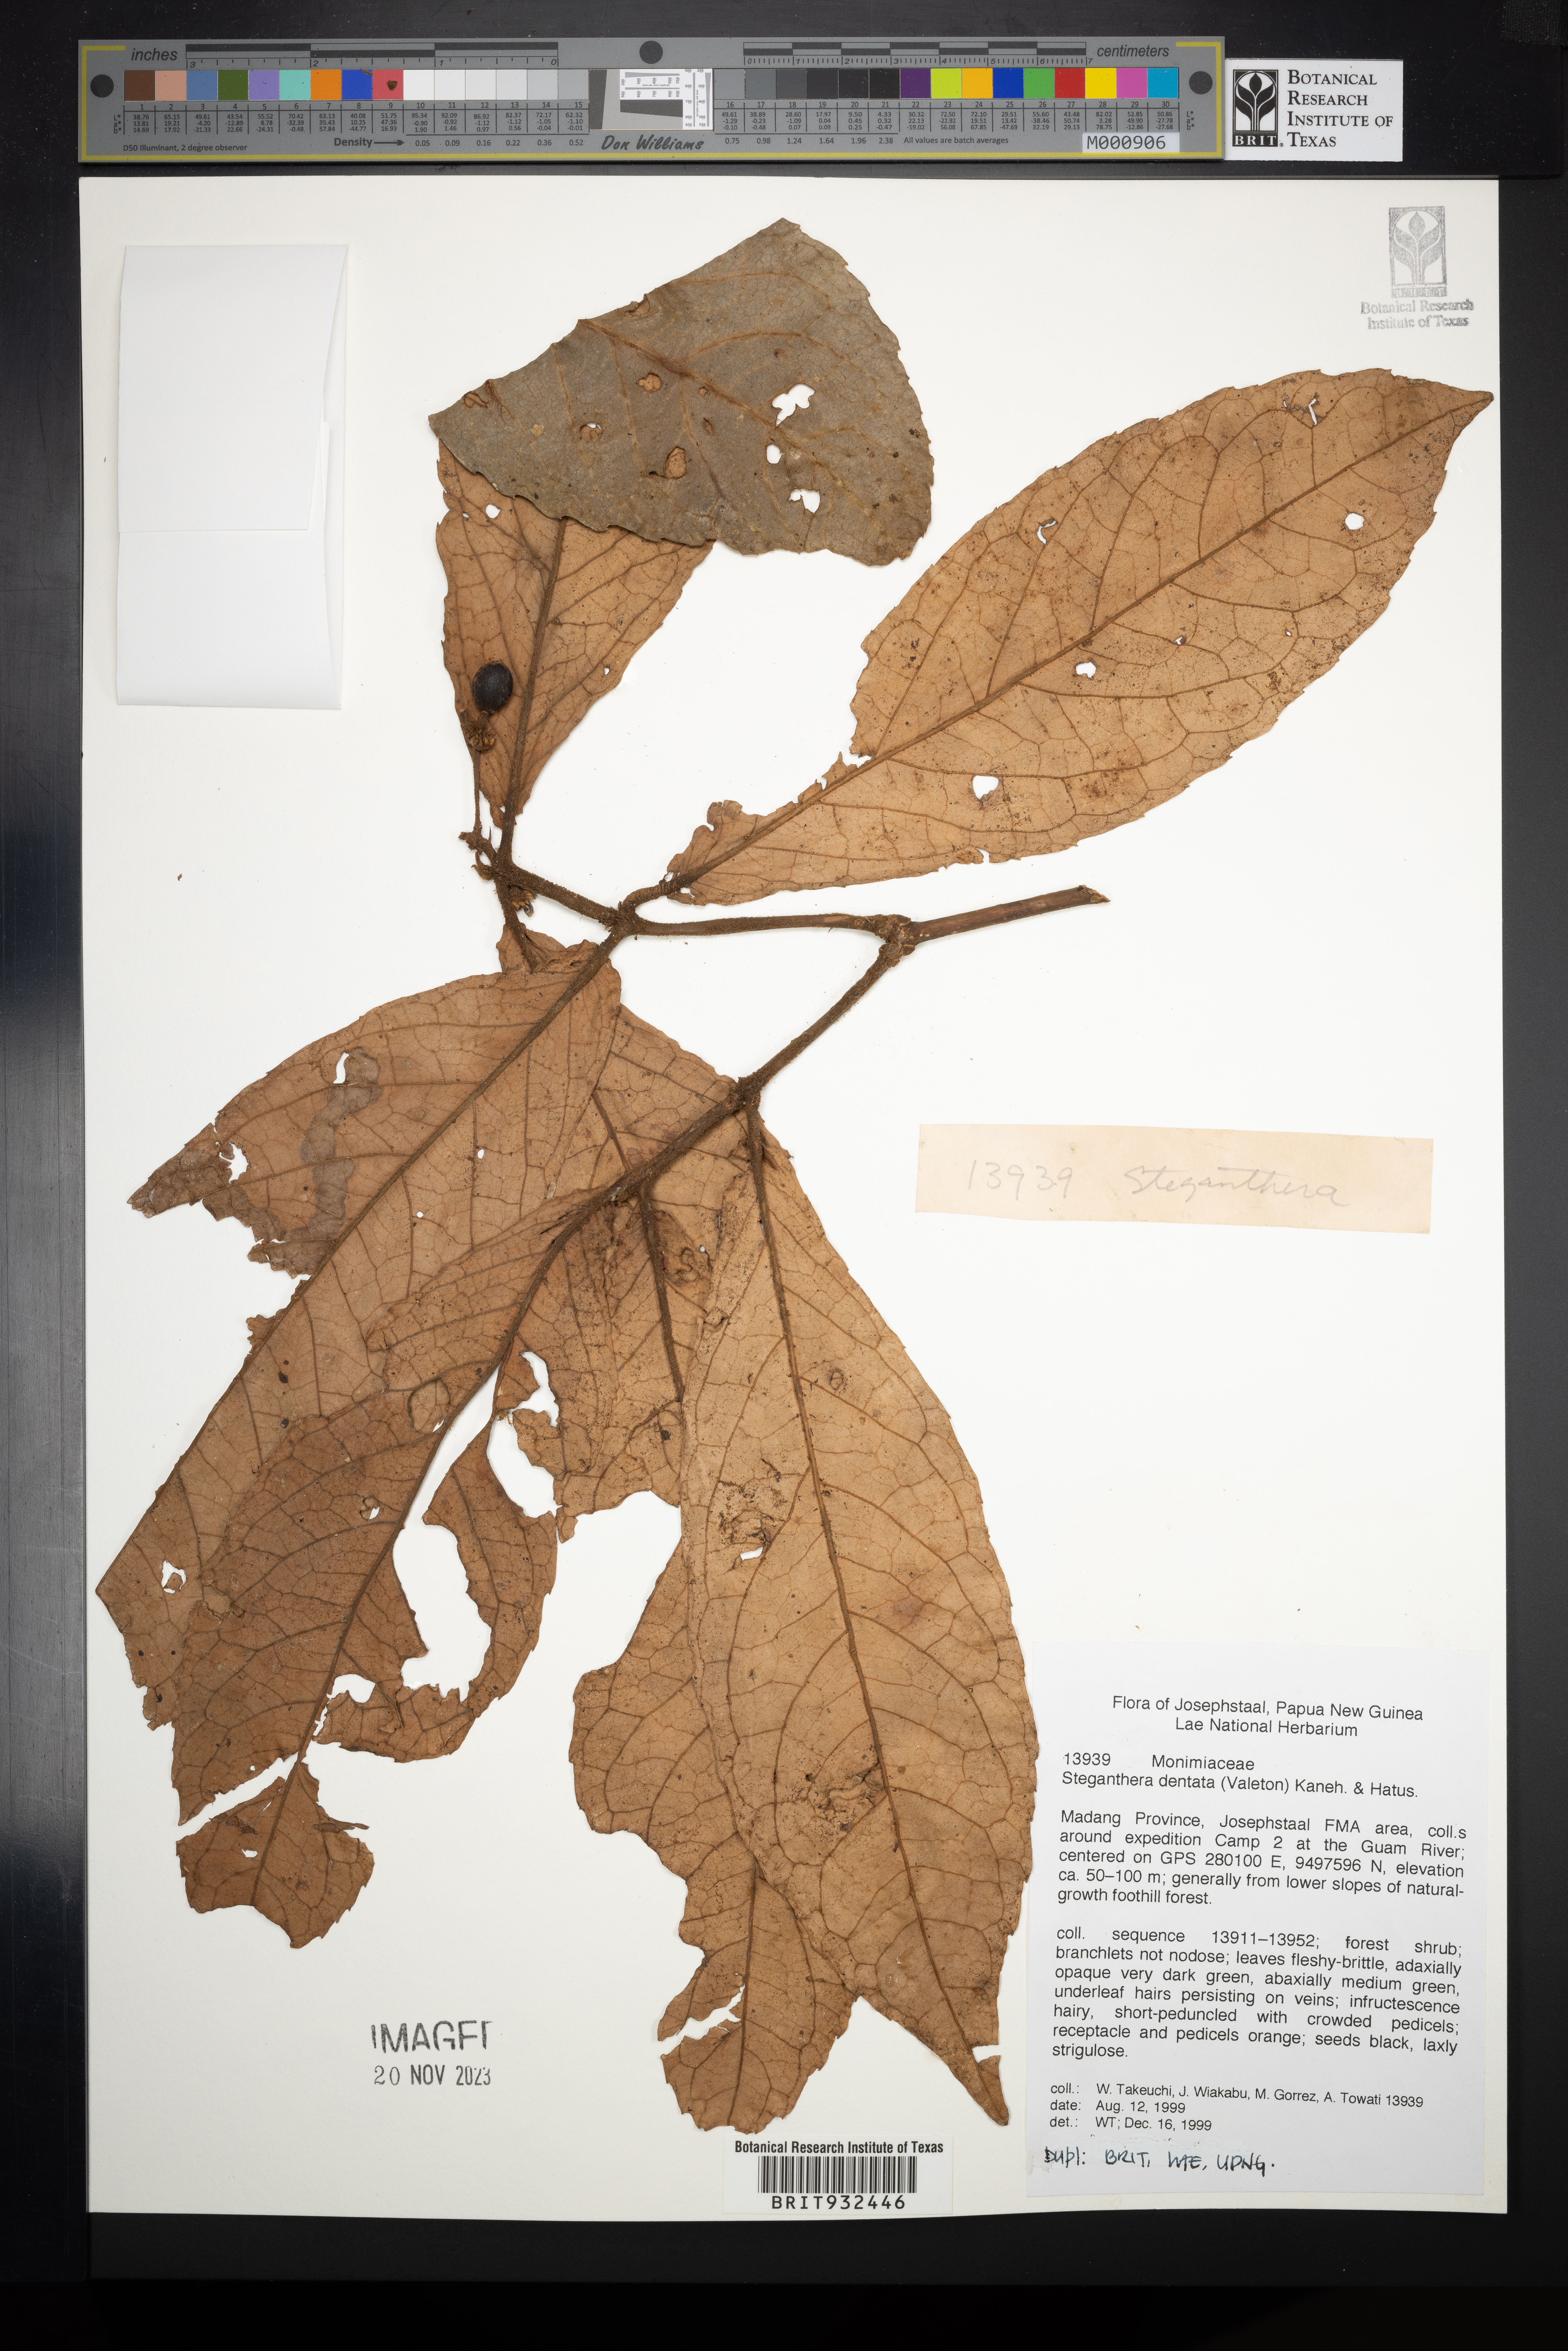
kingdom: Plantae
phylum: Tracheophyta
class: Magnoliopsida
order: Laurales
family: Monimiaceae
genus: Steganthera
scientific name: Steganthera
